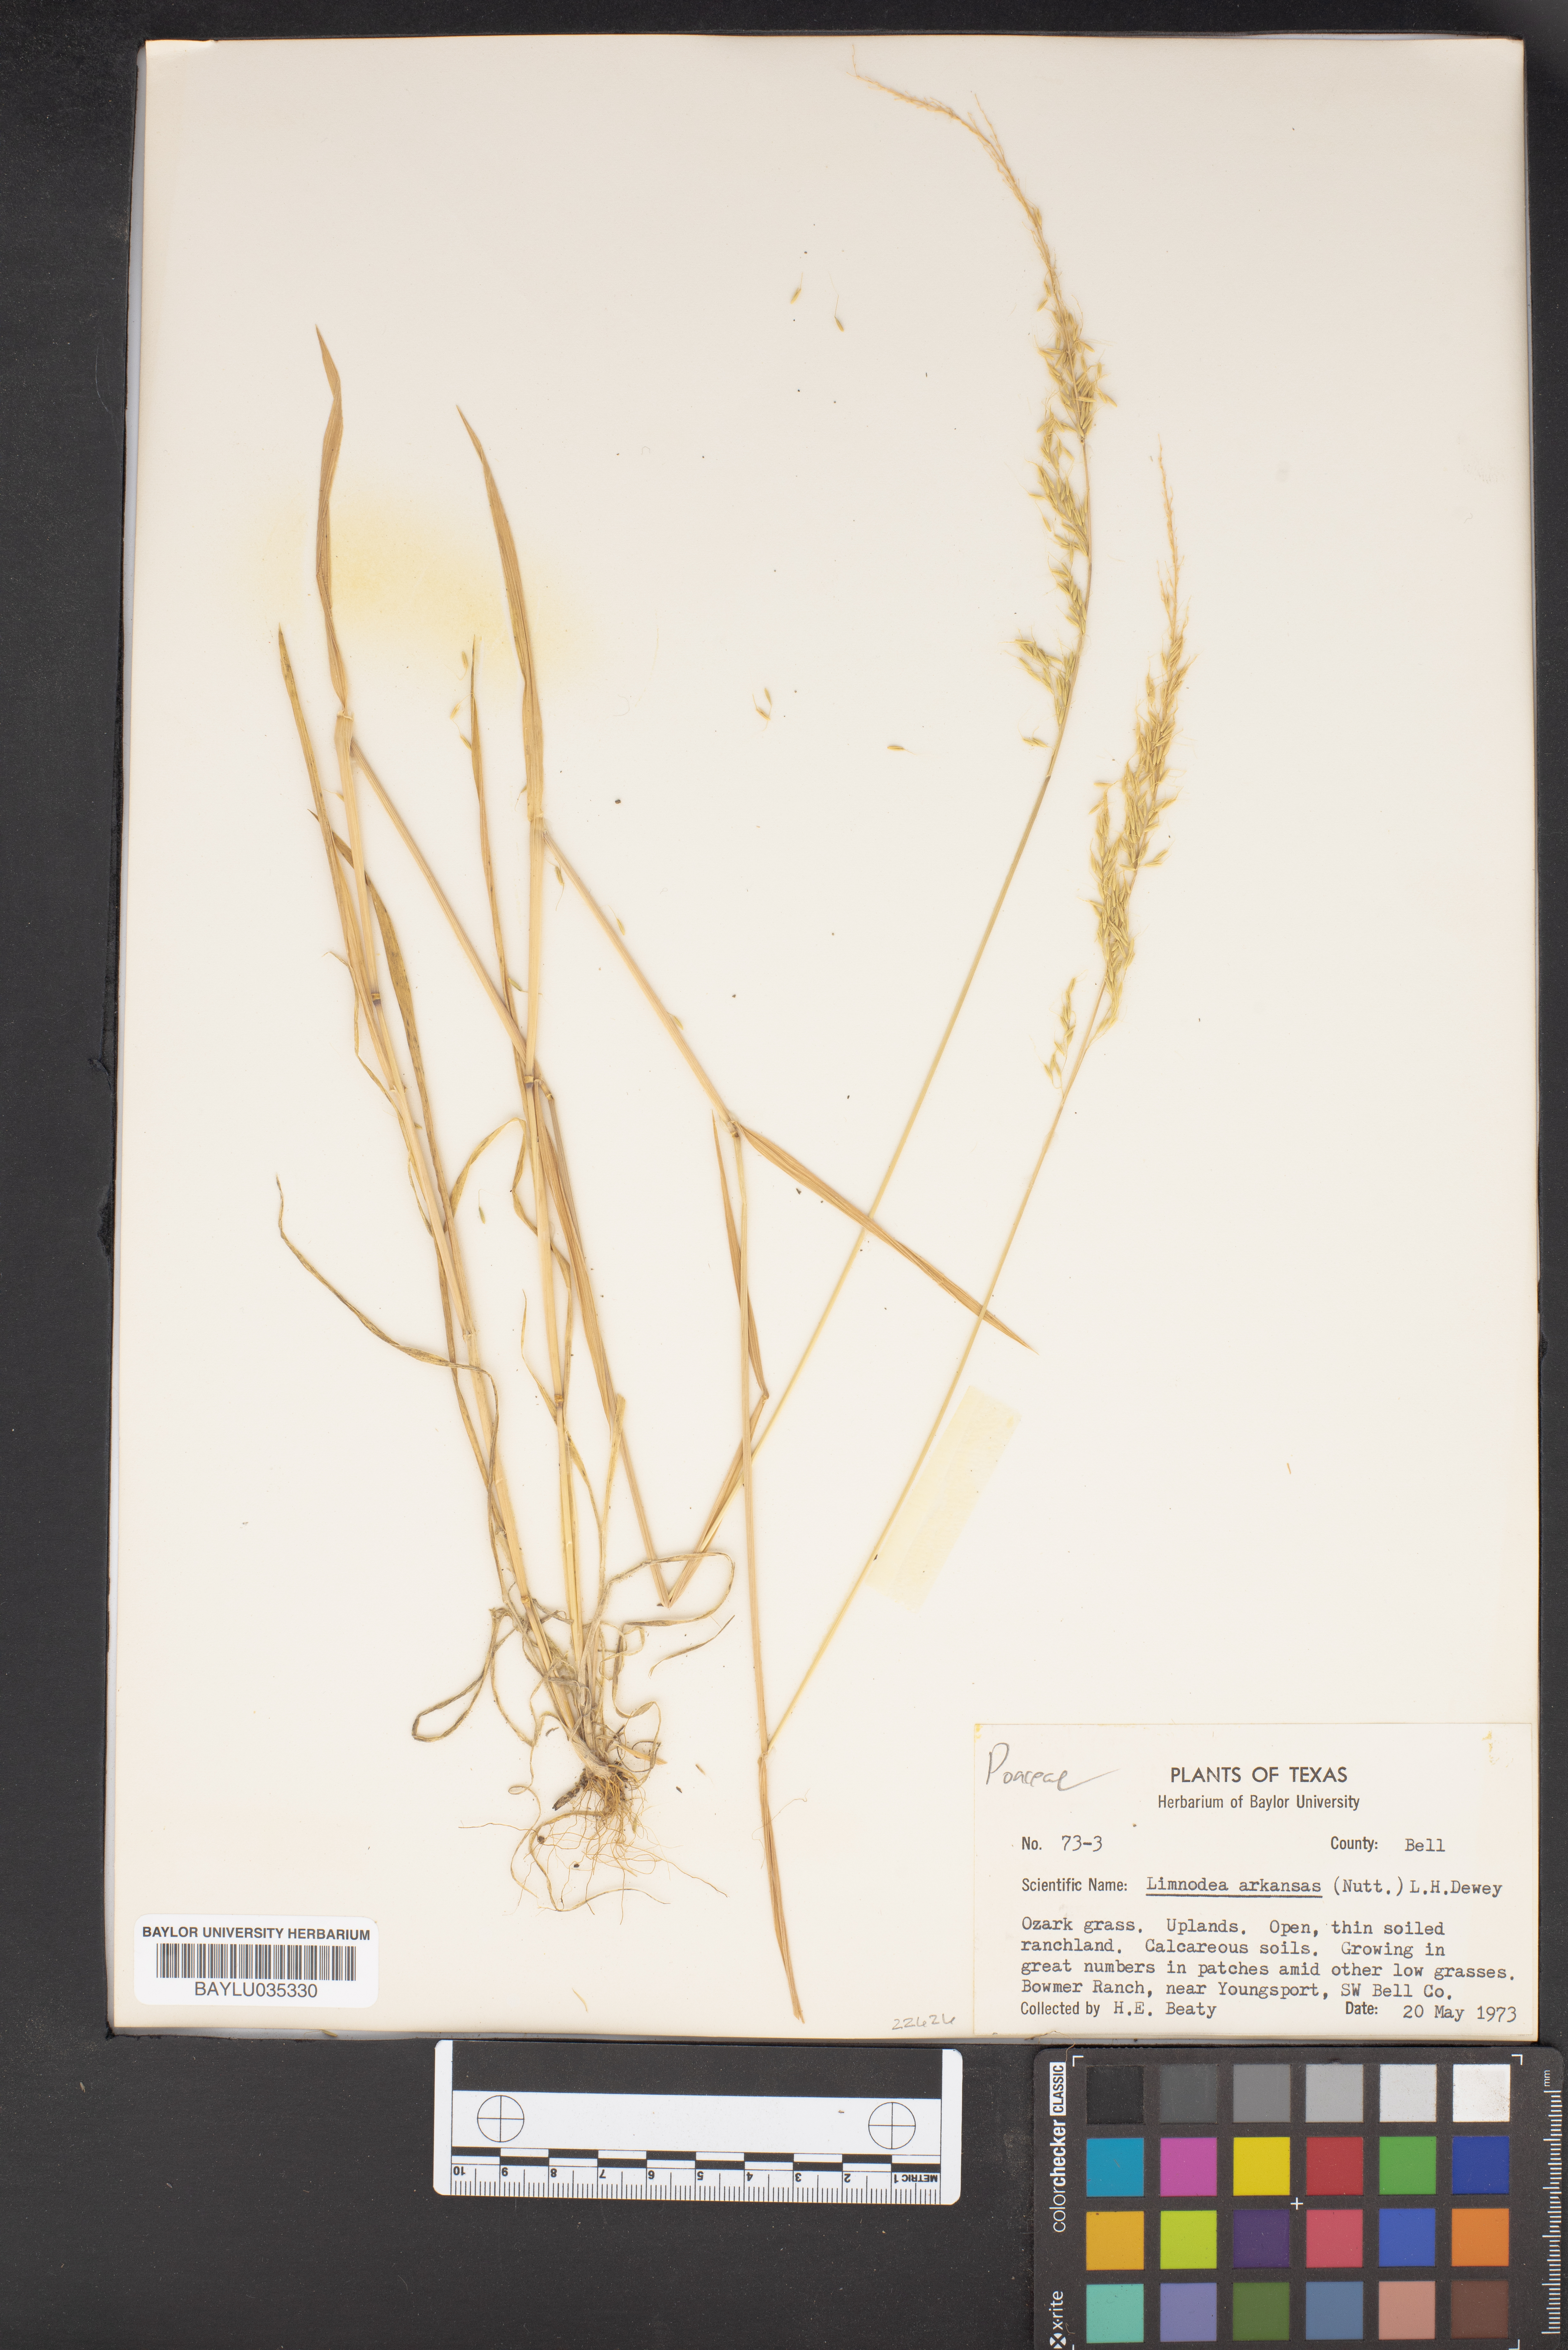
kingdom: Plantae
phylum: Tracheophyta
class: Liliopsida
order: Poales
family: Poaceae
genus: Limnodea
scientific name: Limnodea arkansana
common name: Ozark-grass
